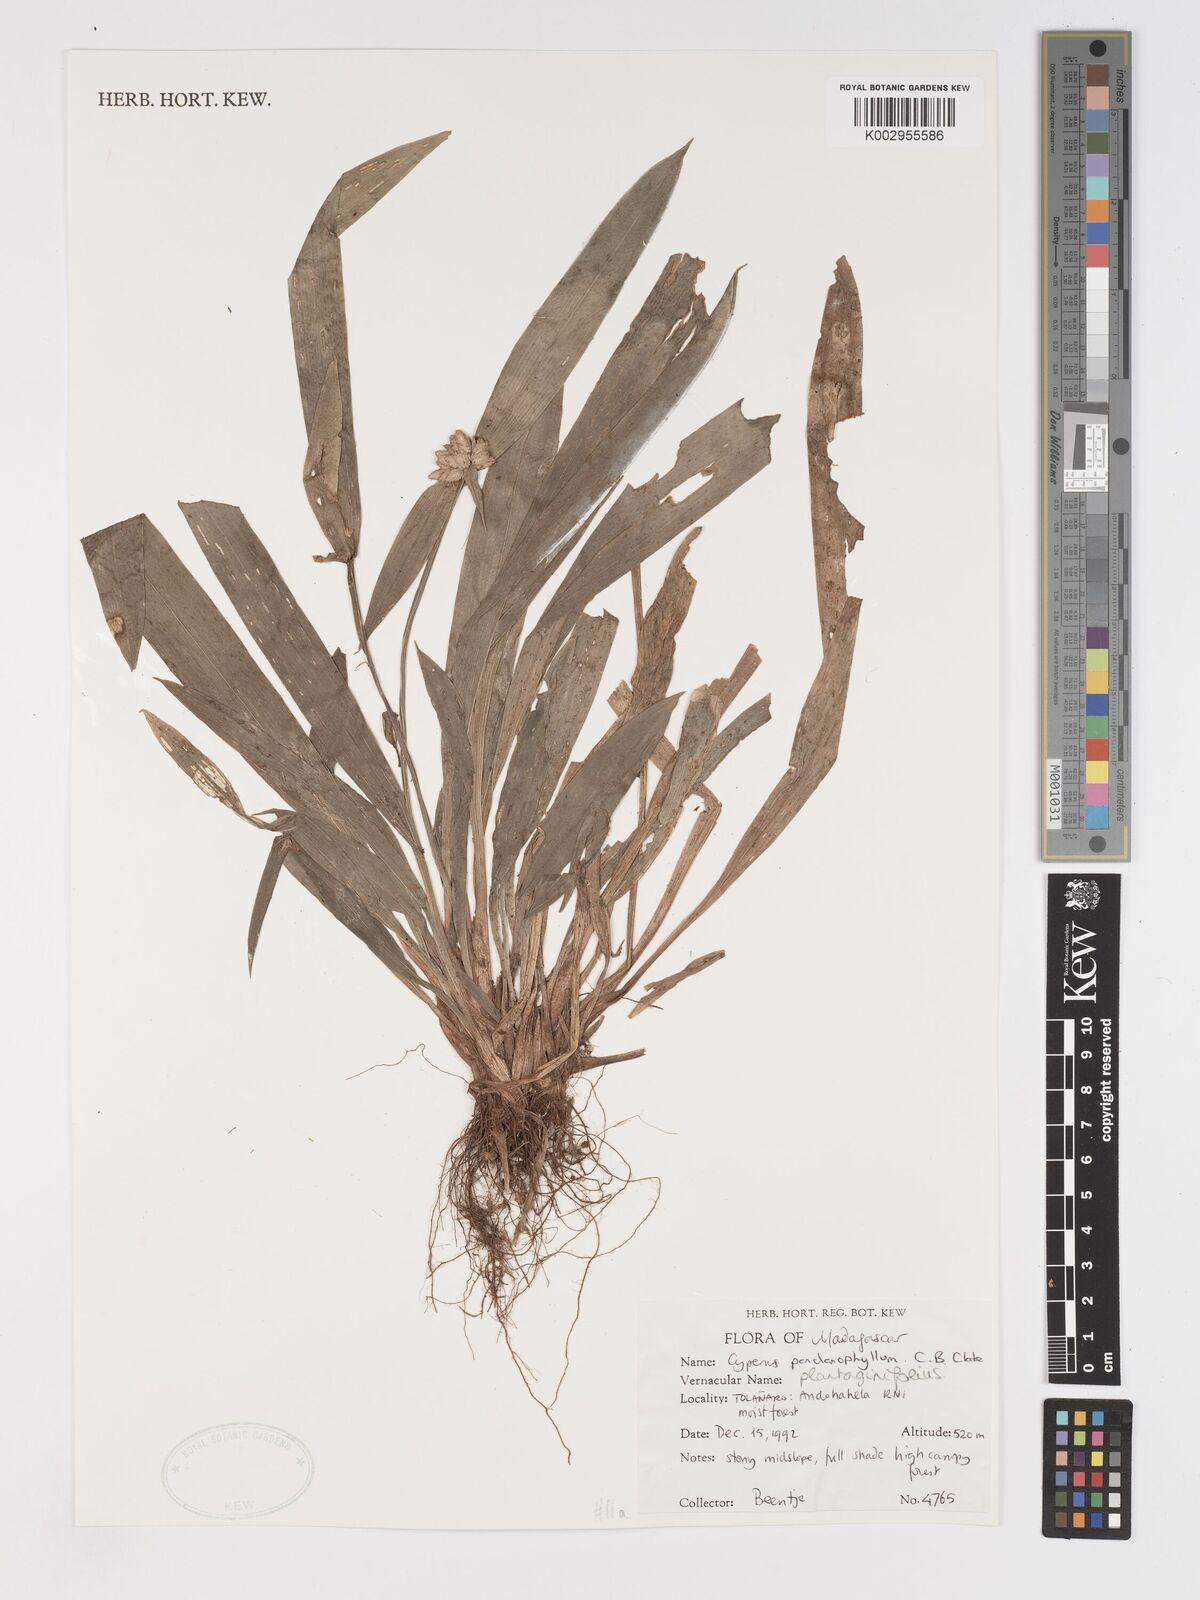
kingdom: Plantae
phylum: Tracheophyta
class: Liliopsida
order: Poales
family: Cyperaceae
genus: Cyperus
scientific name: Cyperus pandanophyllum
